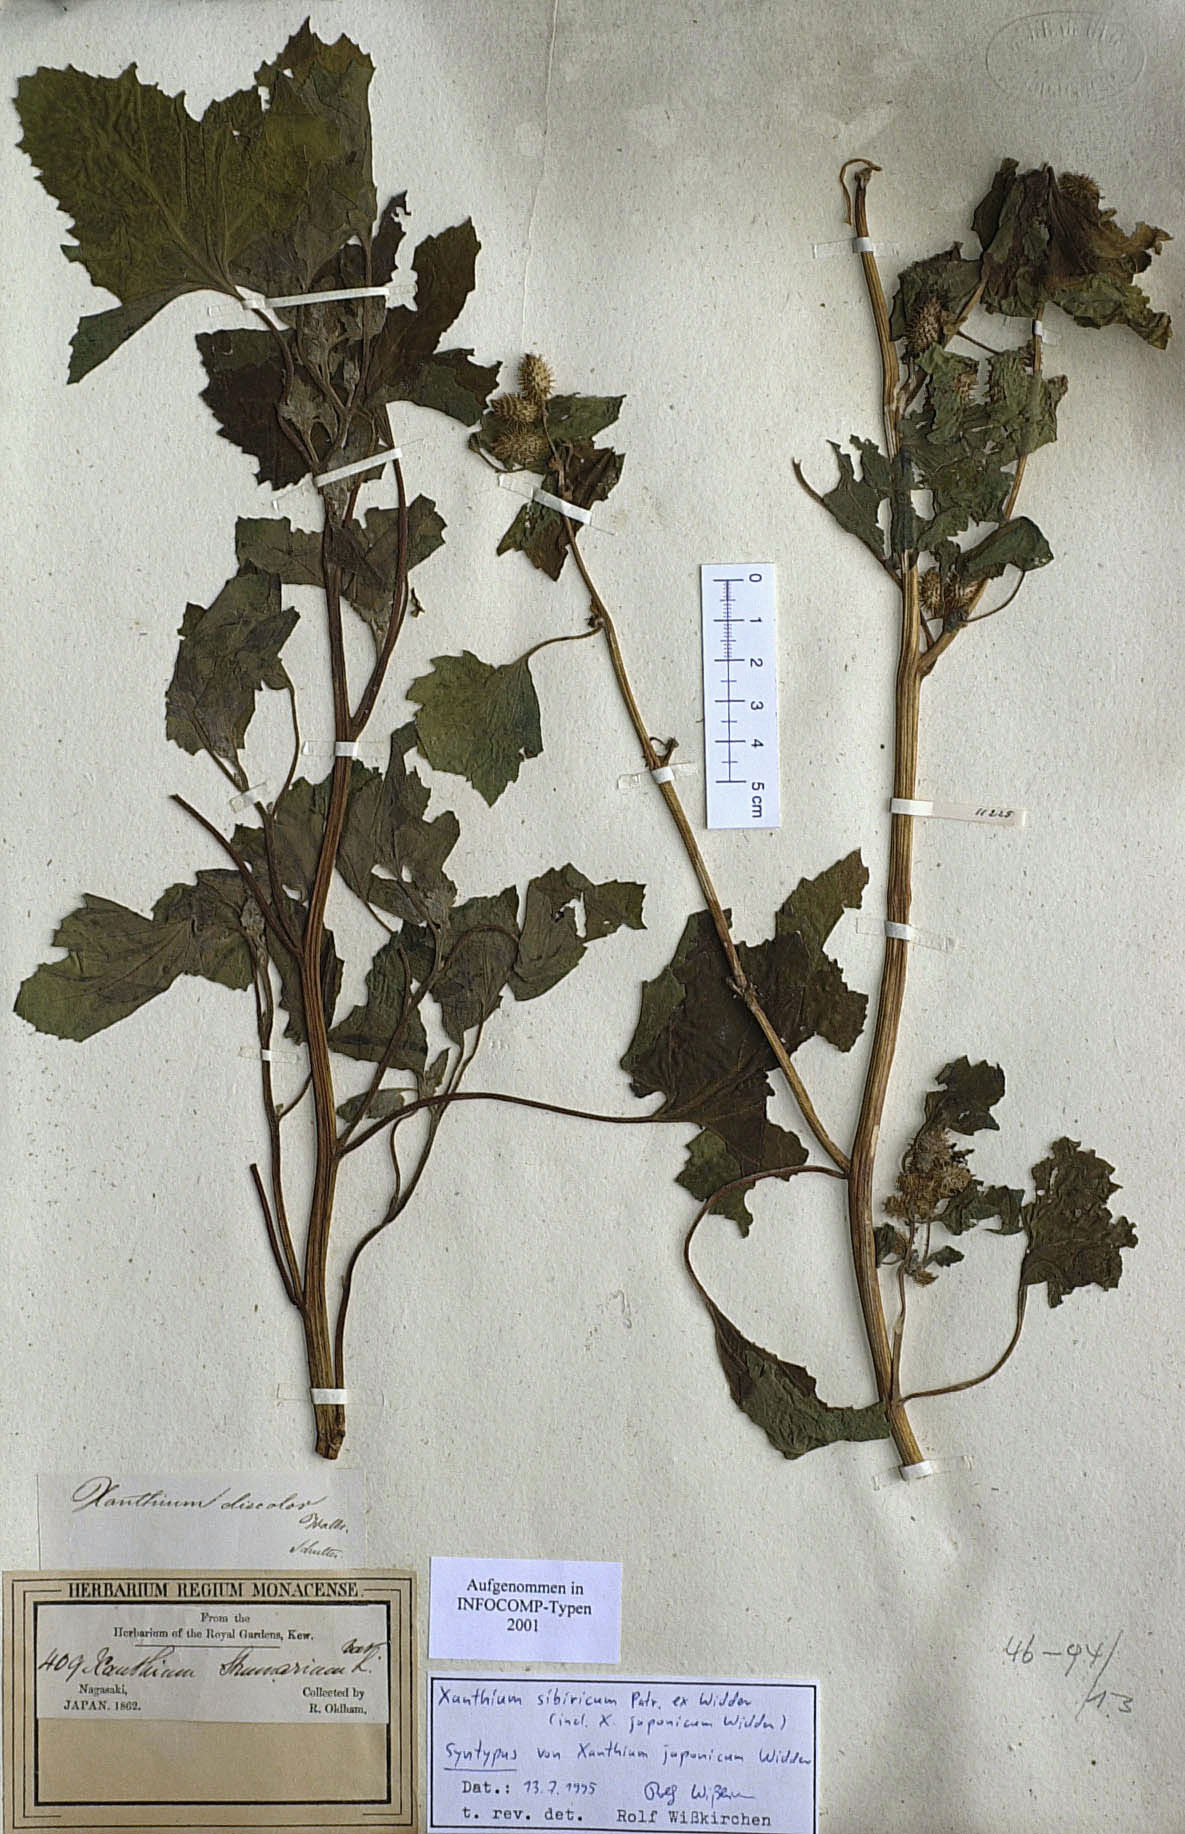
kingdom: Plantae
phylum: Tracheophyta
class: Magnoliopsida
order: Asterales
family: Asteraceae
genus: Xanthium
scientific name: Xanthium strumarium
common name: Rough cocklebur
